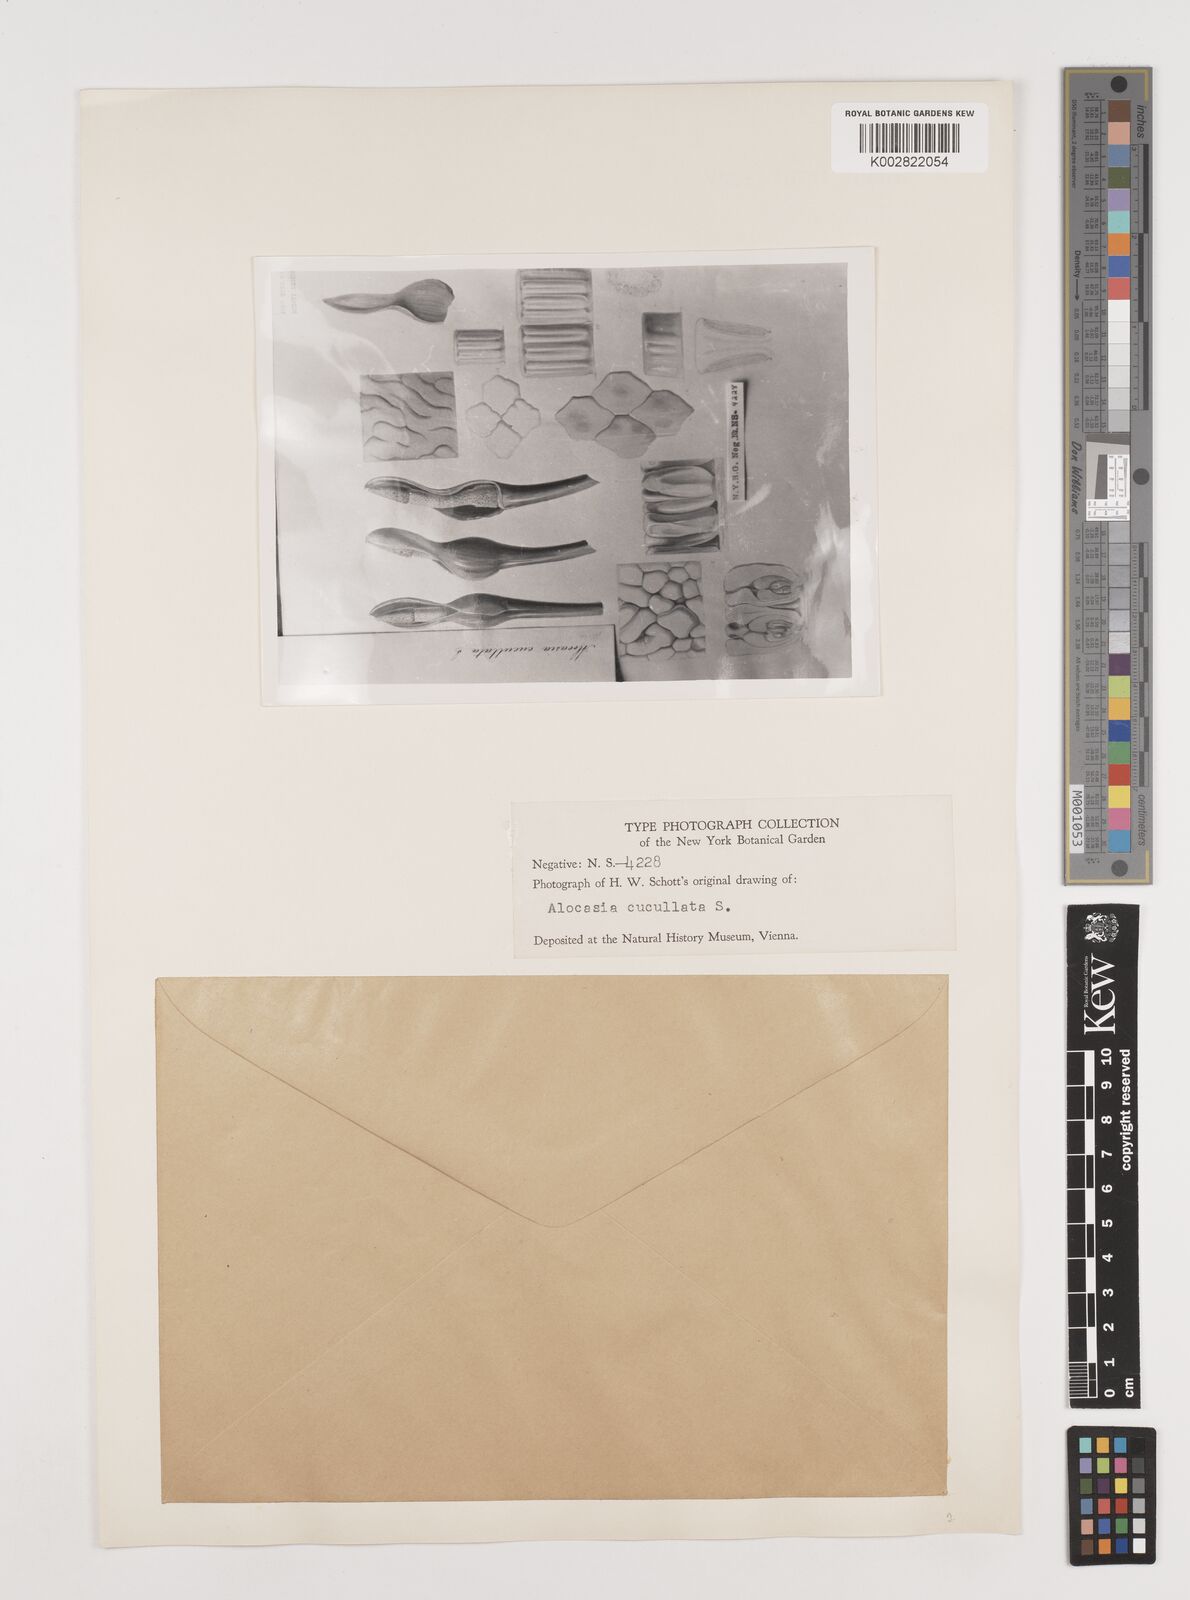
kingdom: Plantae
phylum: Tracheophyta
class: Liliopsida
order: Alismatales
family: Araceae
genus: Alocasia
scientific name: Alocasia cucullata
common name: Buddha's hand
